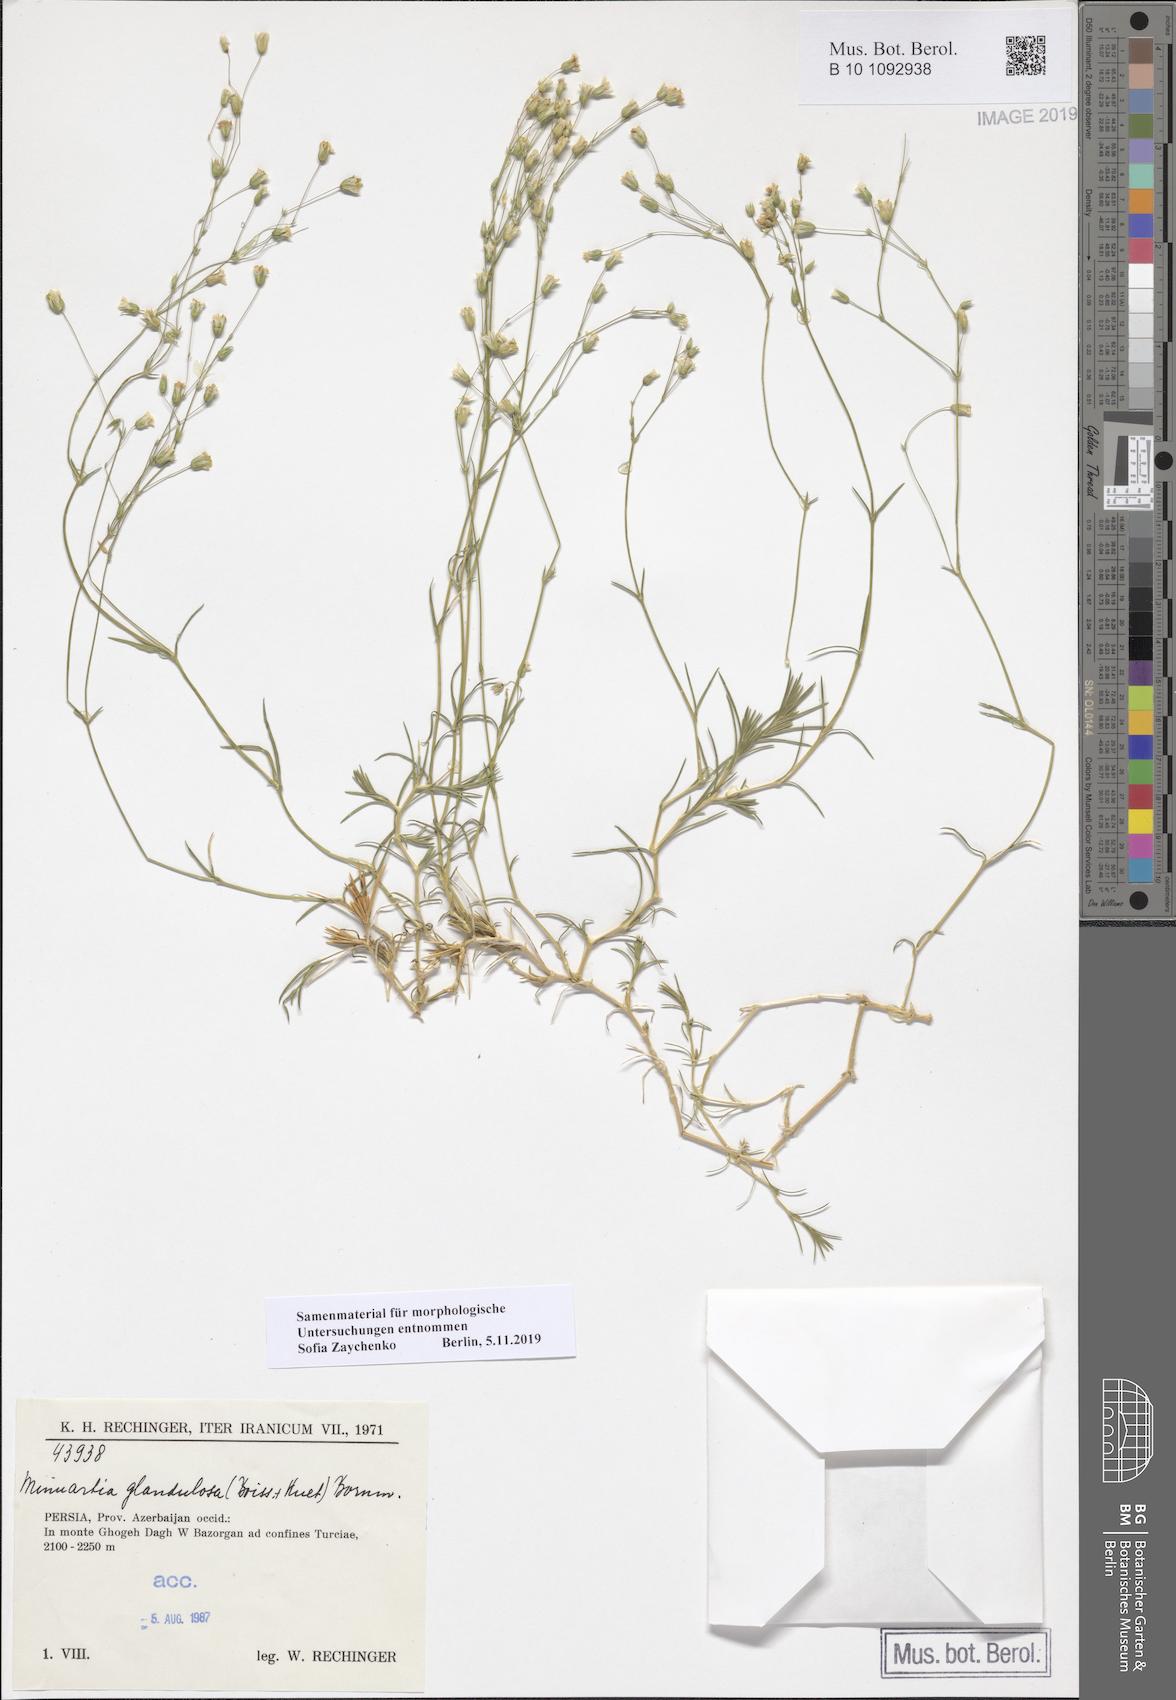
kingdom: Plantae
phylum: Tracheophyta
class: Magnoliopsida
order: Caryophyllales
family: Caryophyllaceae
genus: Sabulina
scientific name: Sabulina glandulosa
